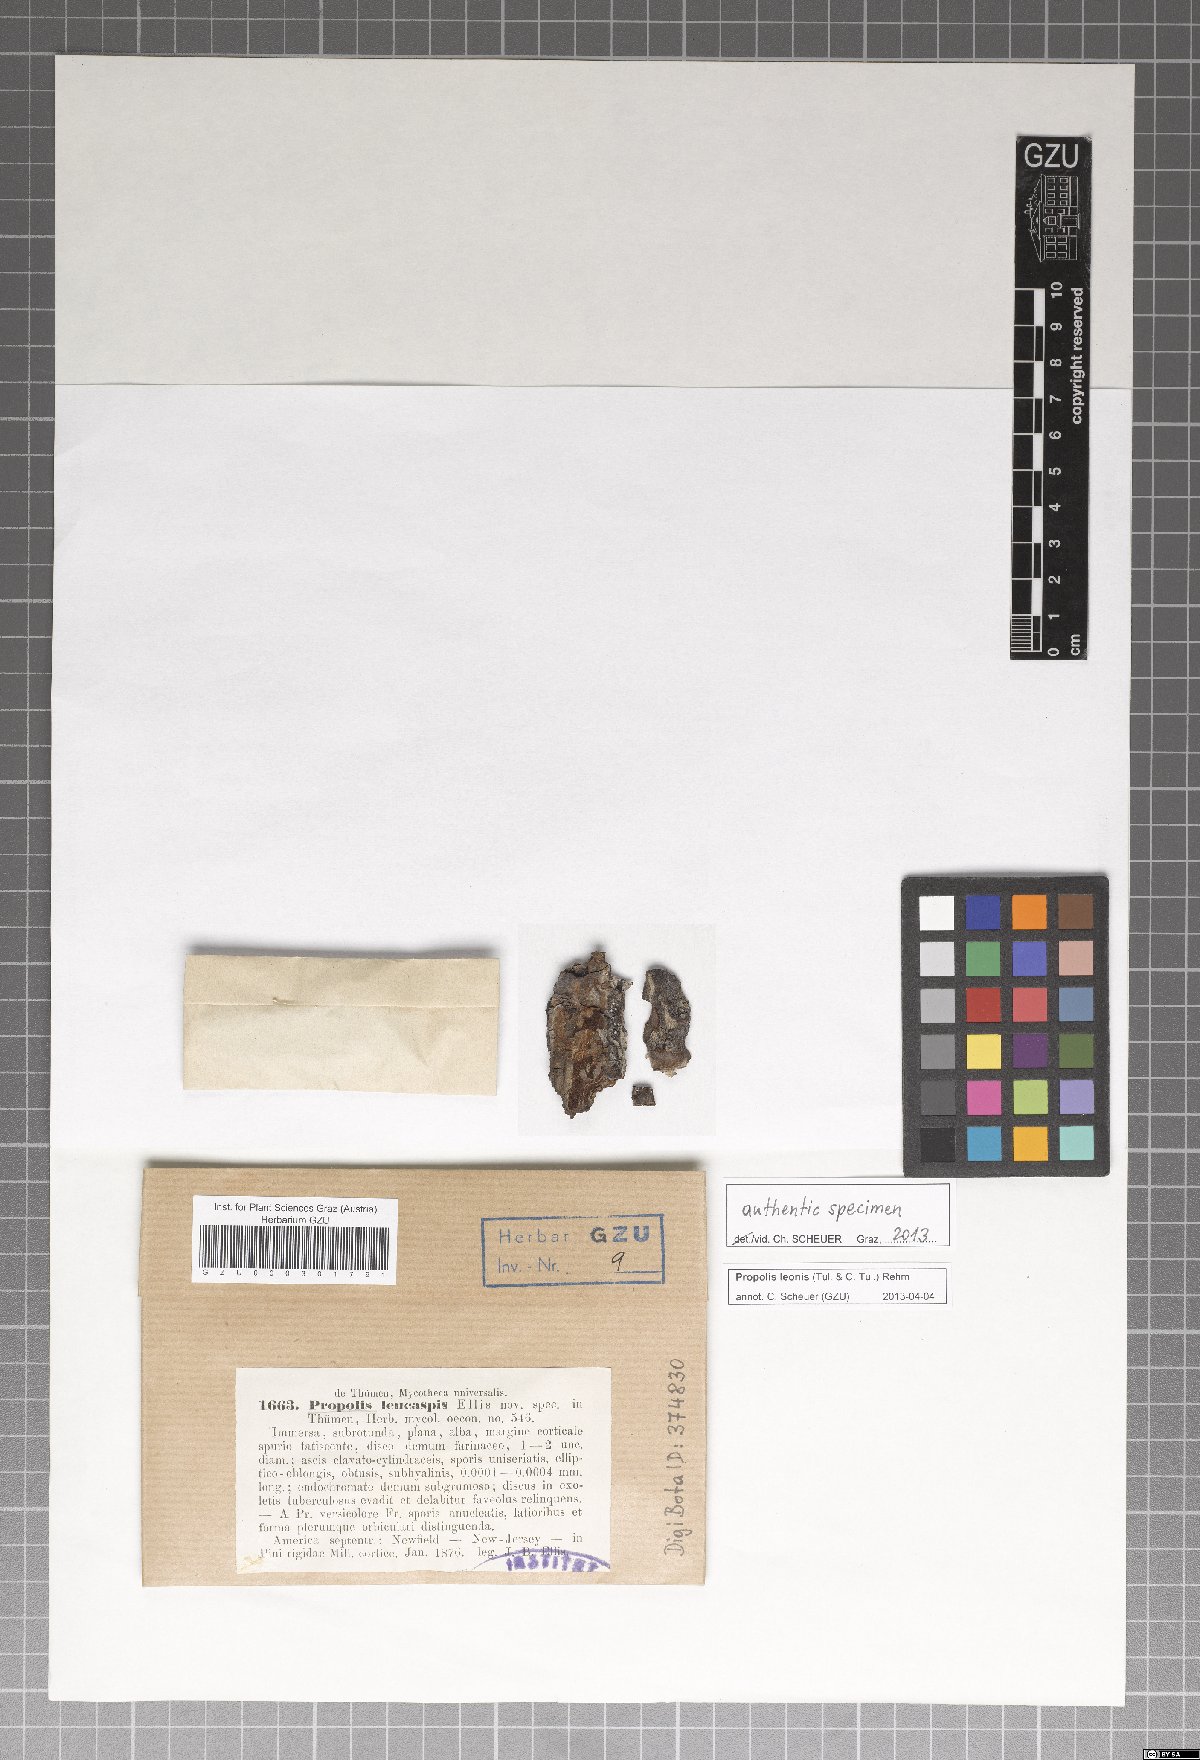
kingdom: Fungi
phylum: Ascomycota
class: Leotiomycetes
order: Chaetomellales
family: Marthamycetaceae
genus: Propolis
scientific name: Propolis leonis
